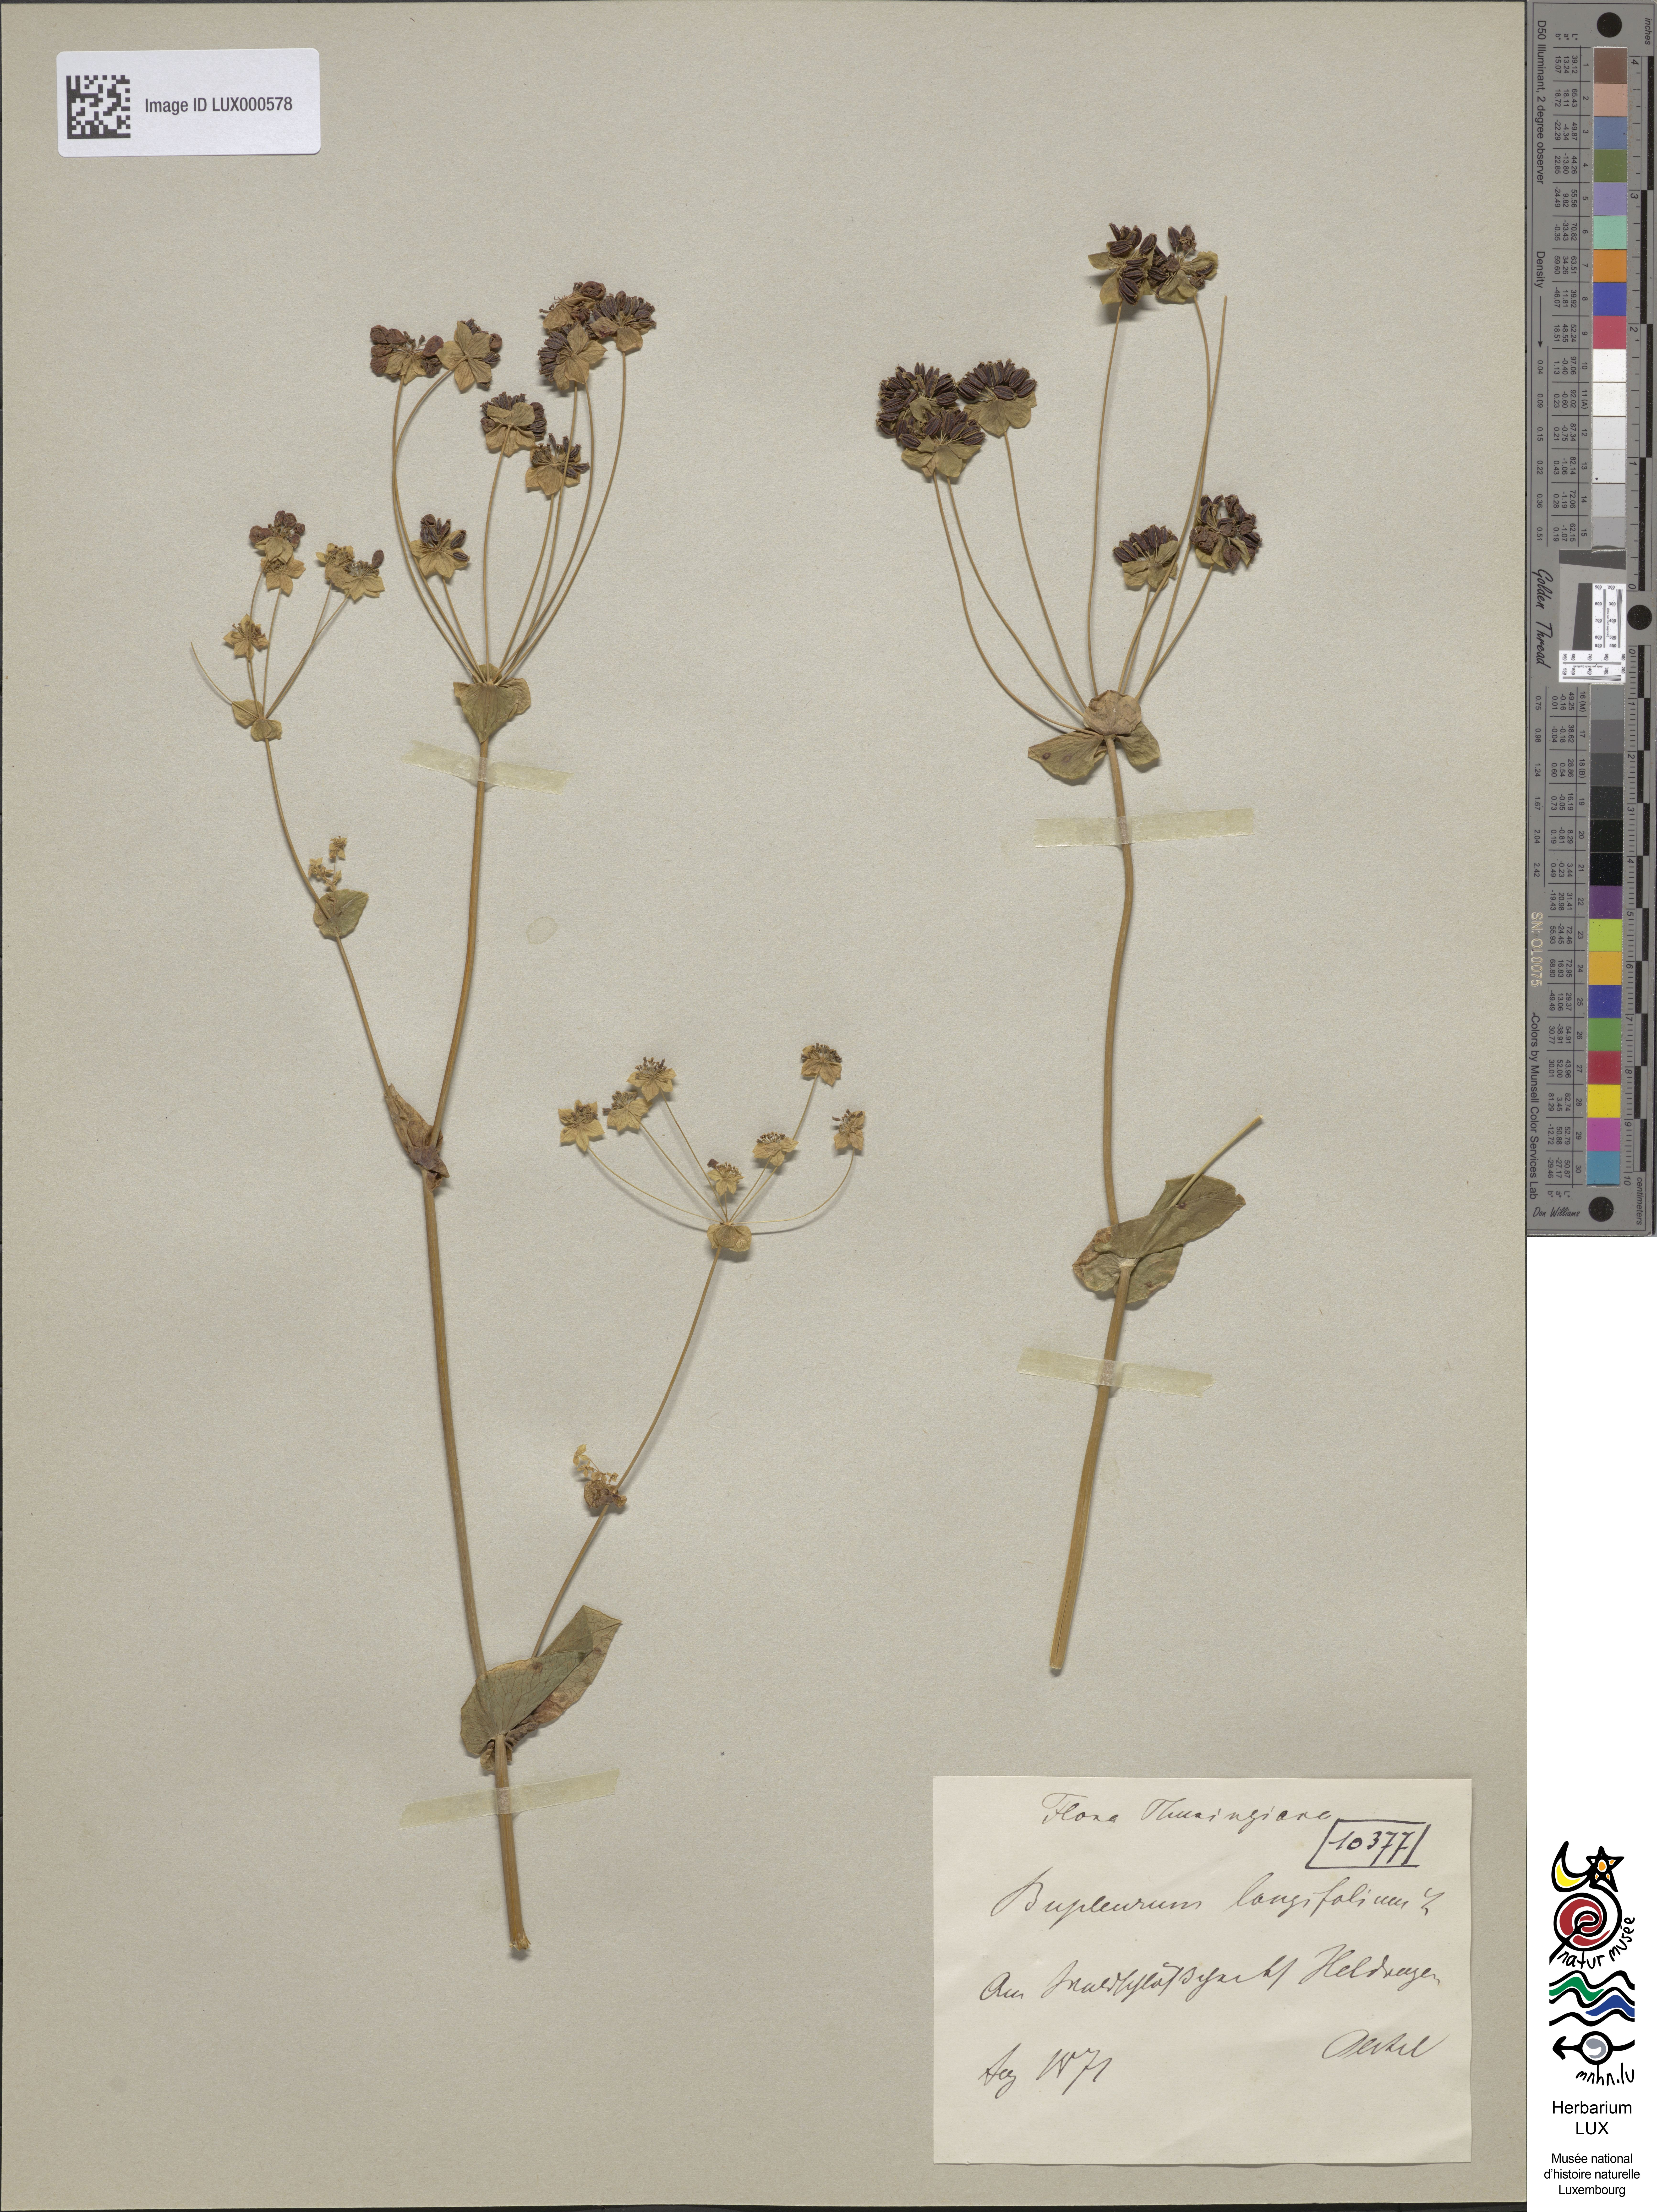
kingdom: Plantae
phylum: Tracheophyta
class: Magnoliopsida
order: Apiales
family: Apiaceae
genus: Bupleurum
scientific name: Bupleurum longifolium
